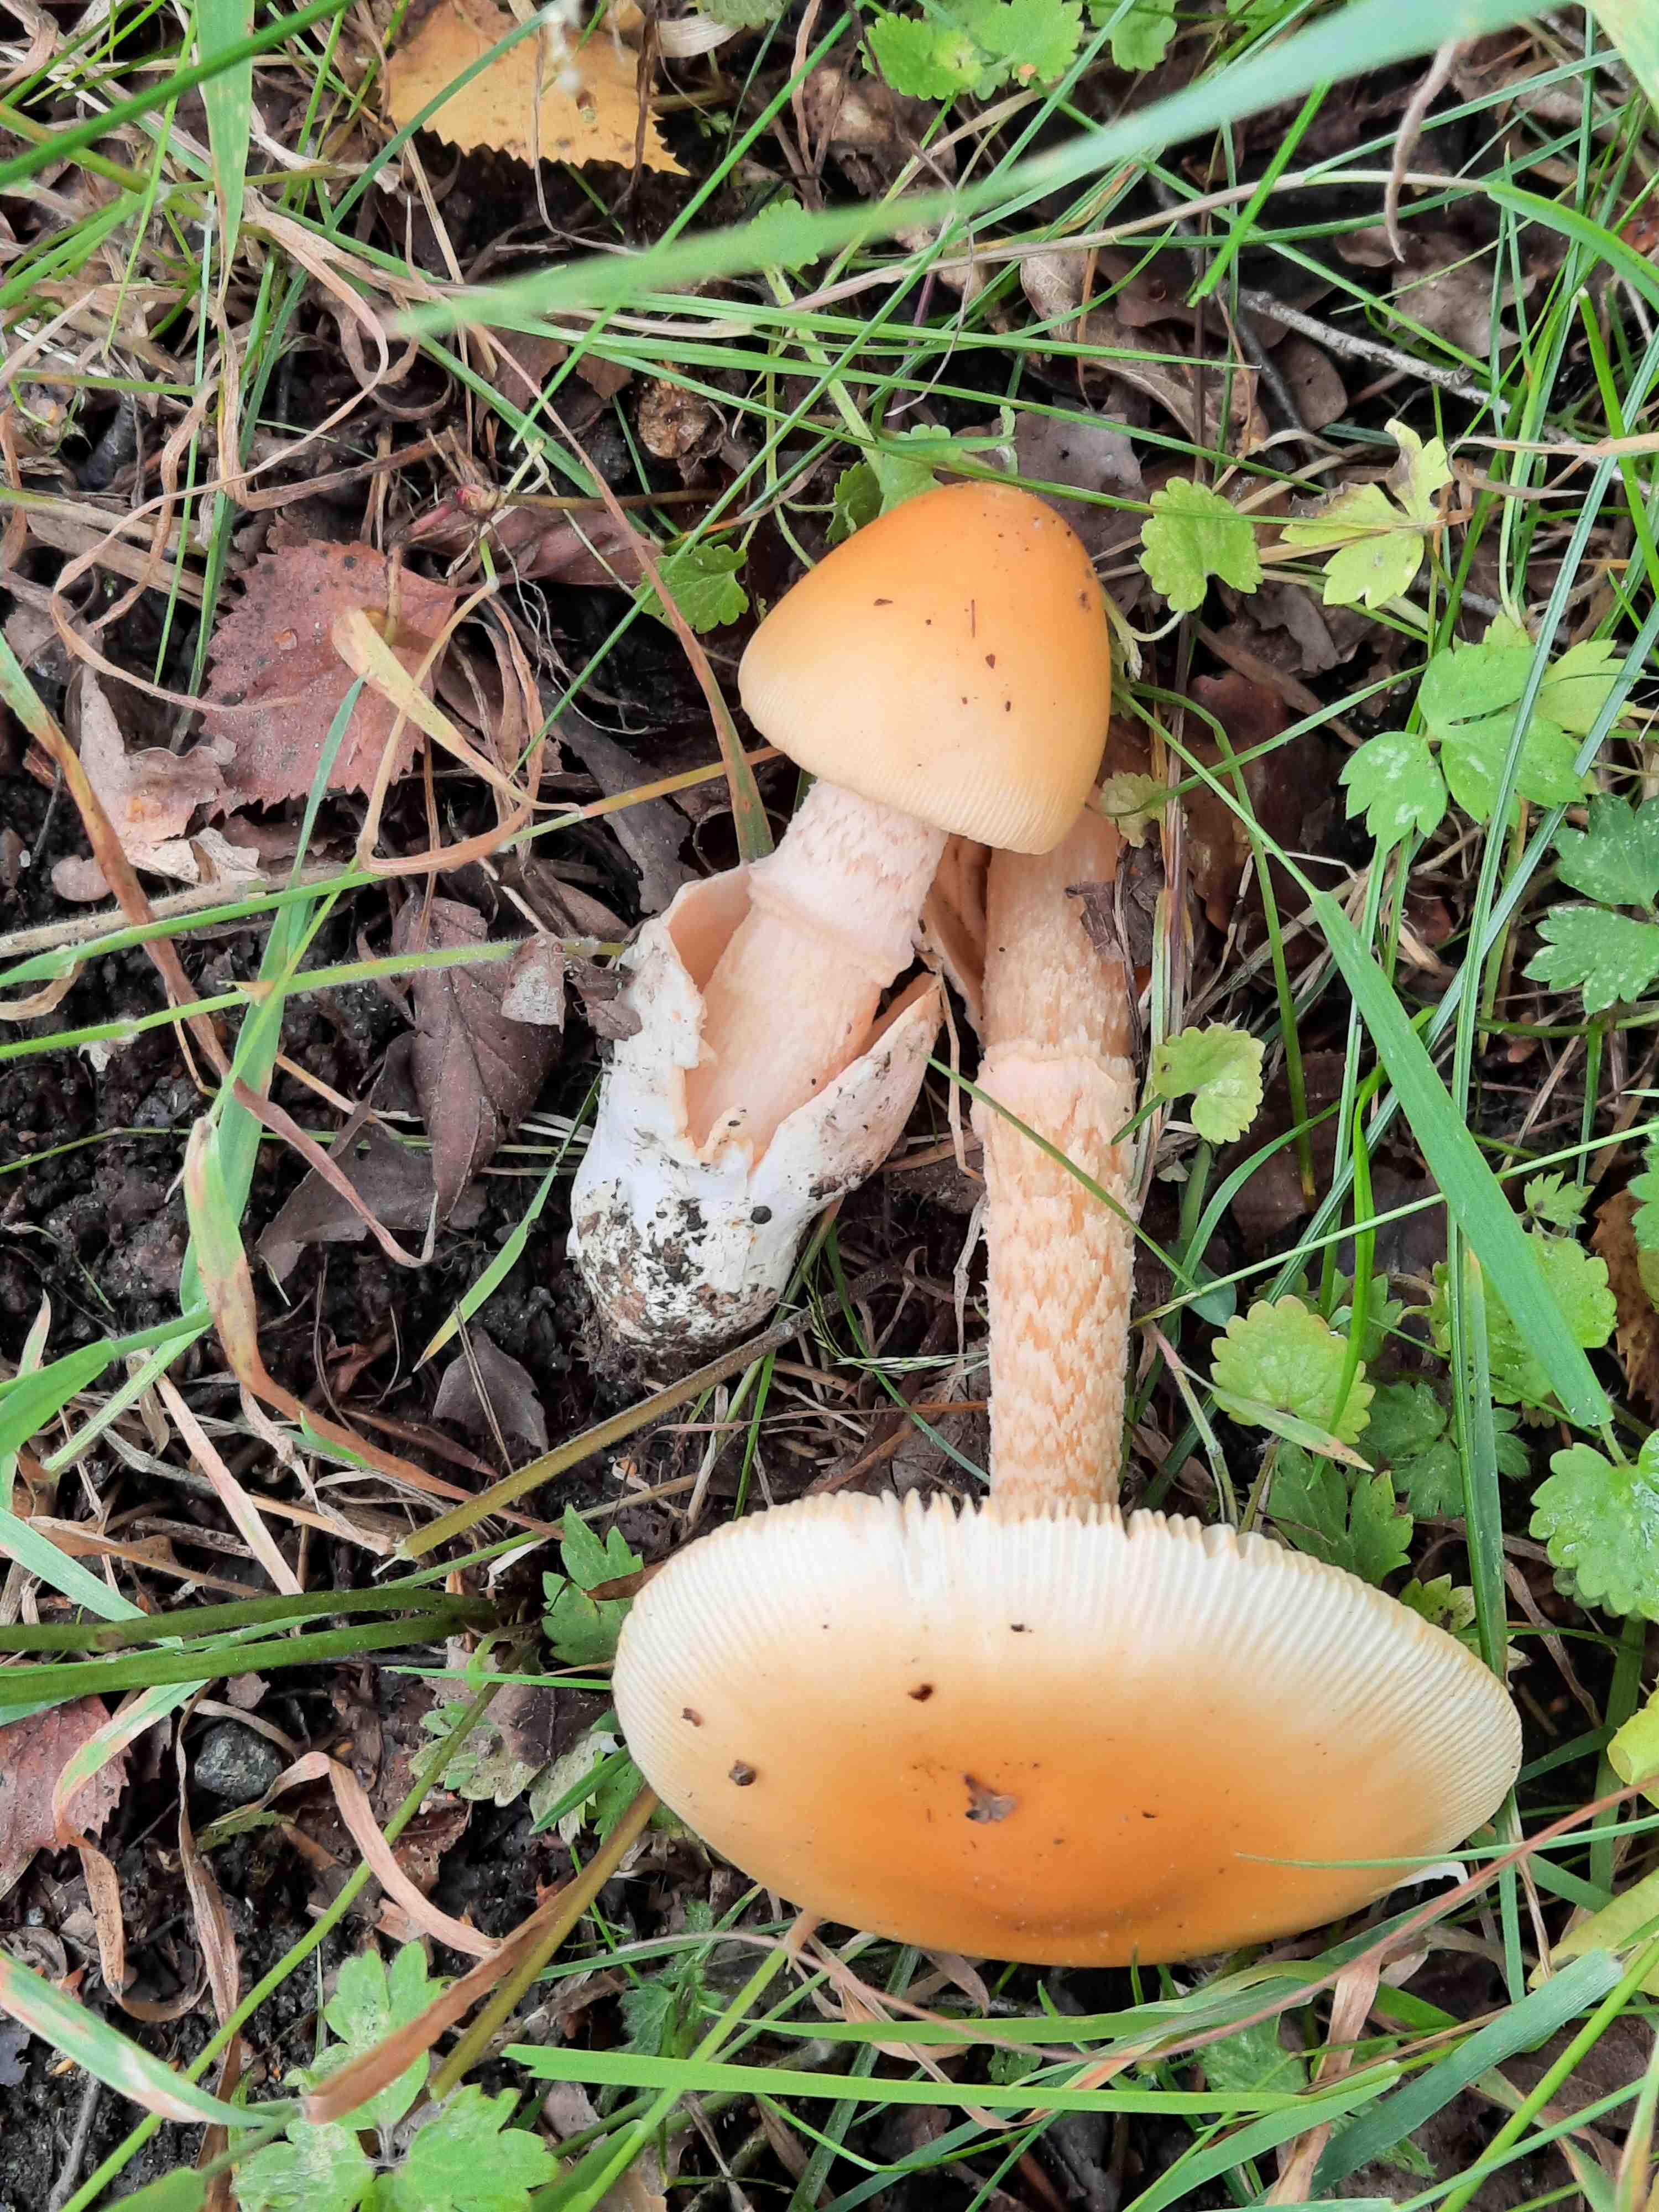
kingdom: Fungi
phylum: Basidiomycota
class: Agaricomycetes
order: Agaricales
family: Amanitaceae
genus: Amanita
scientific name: Amanita crocea
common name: gylden kam-fluesvamp
